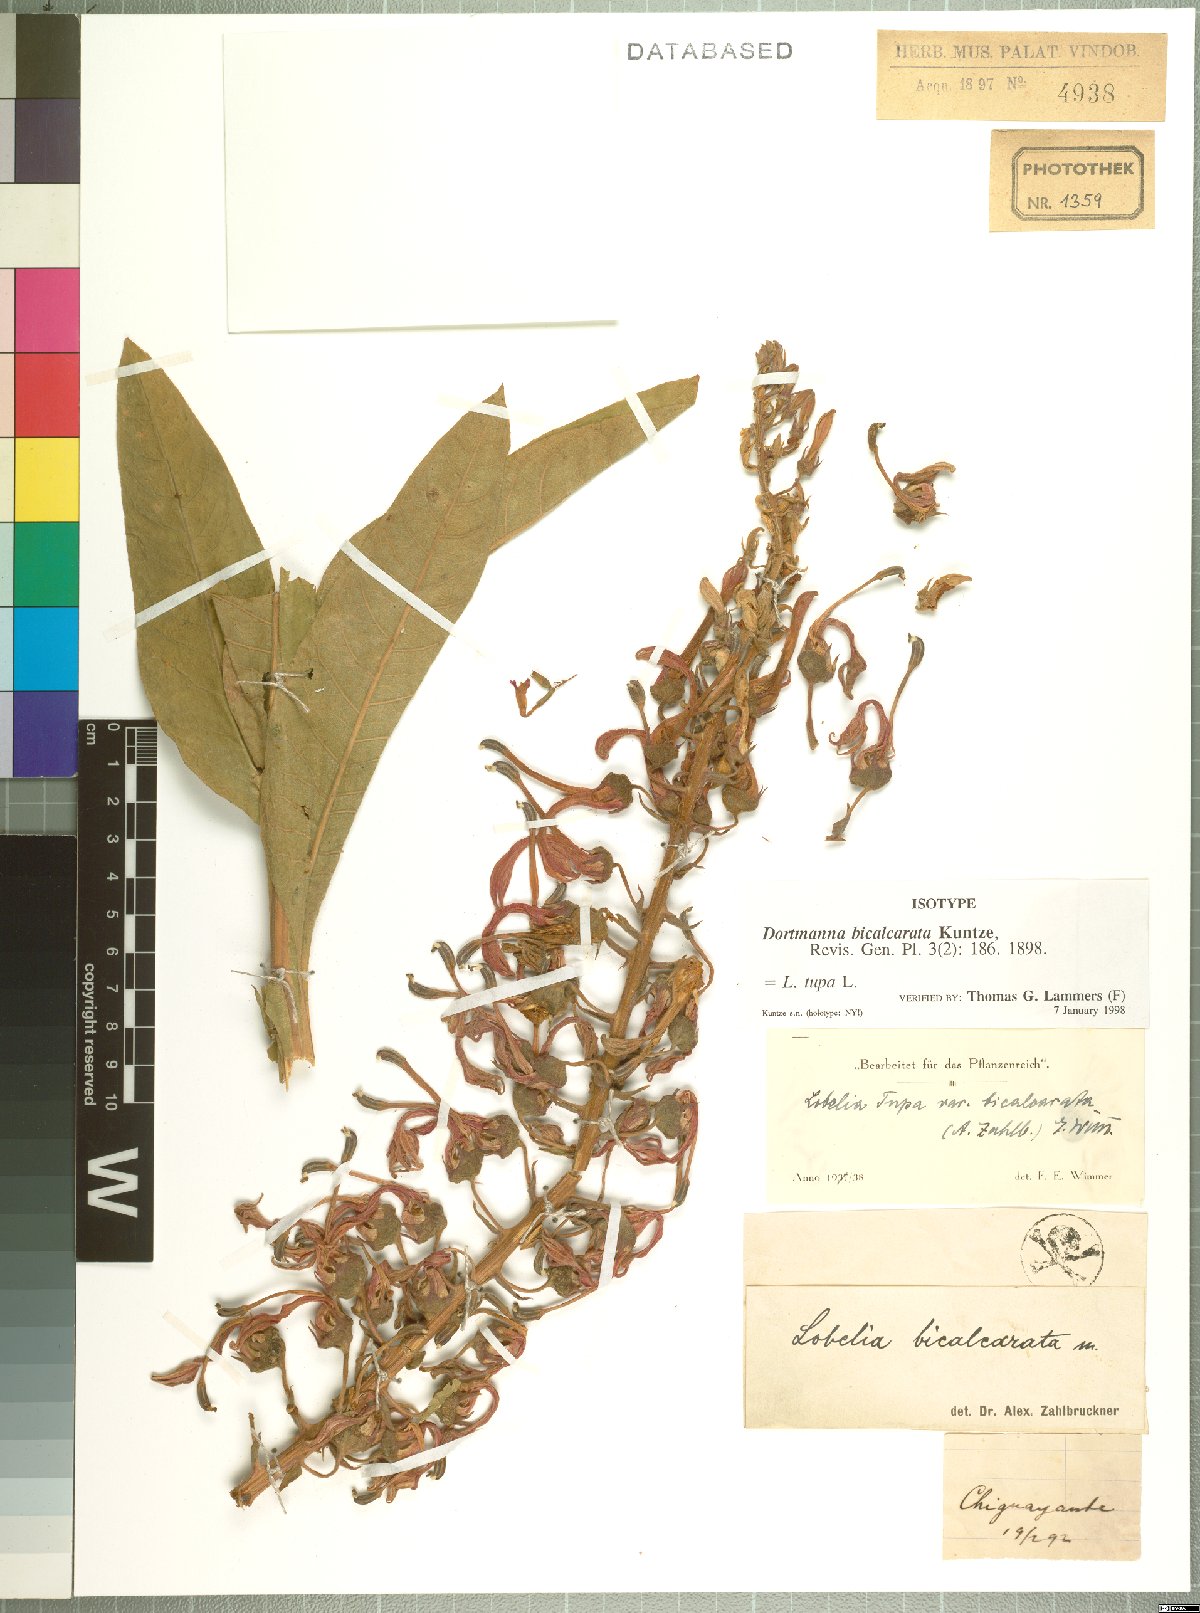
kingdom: Plantae
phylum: Tracheophyta
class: Magnoliopsida
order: Asterales
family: Campanulaceae
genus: Lobelia
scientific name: Lobelia tupa
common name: Devil's-tobacco
